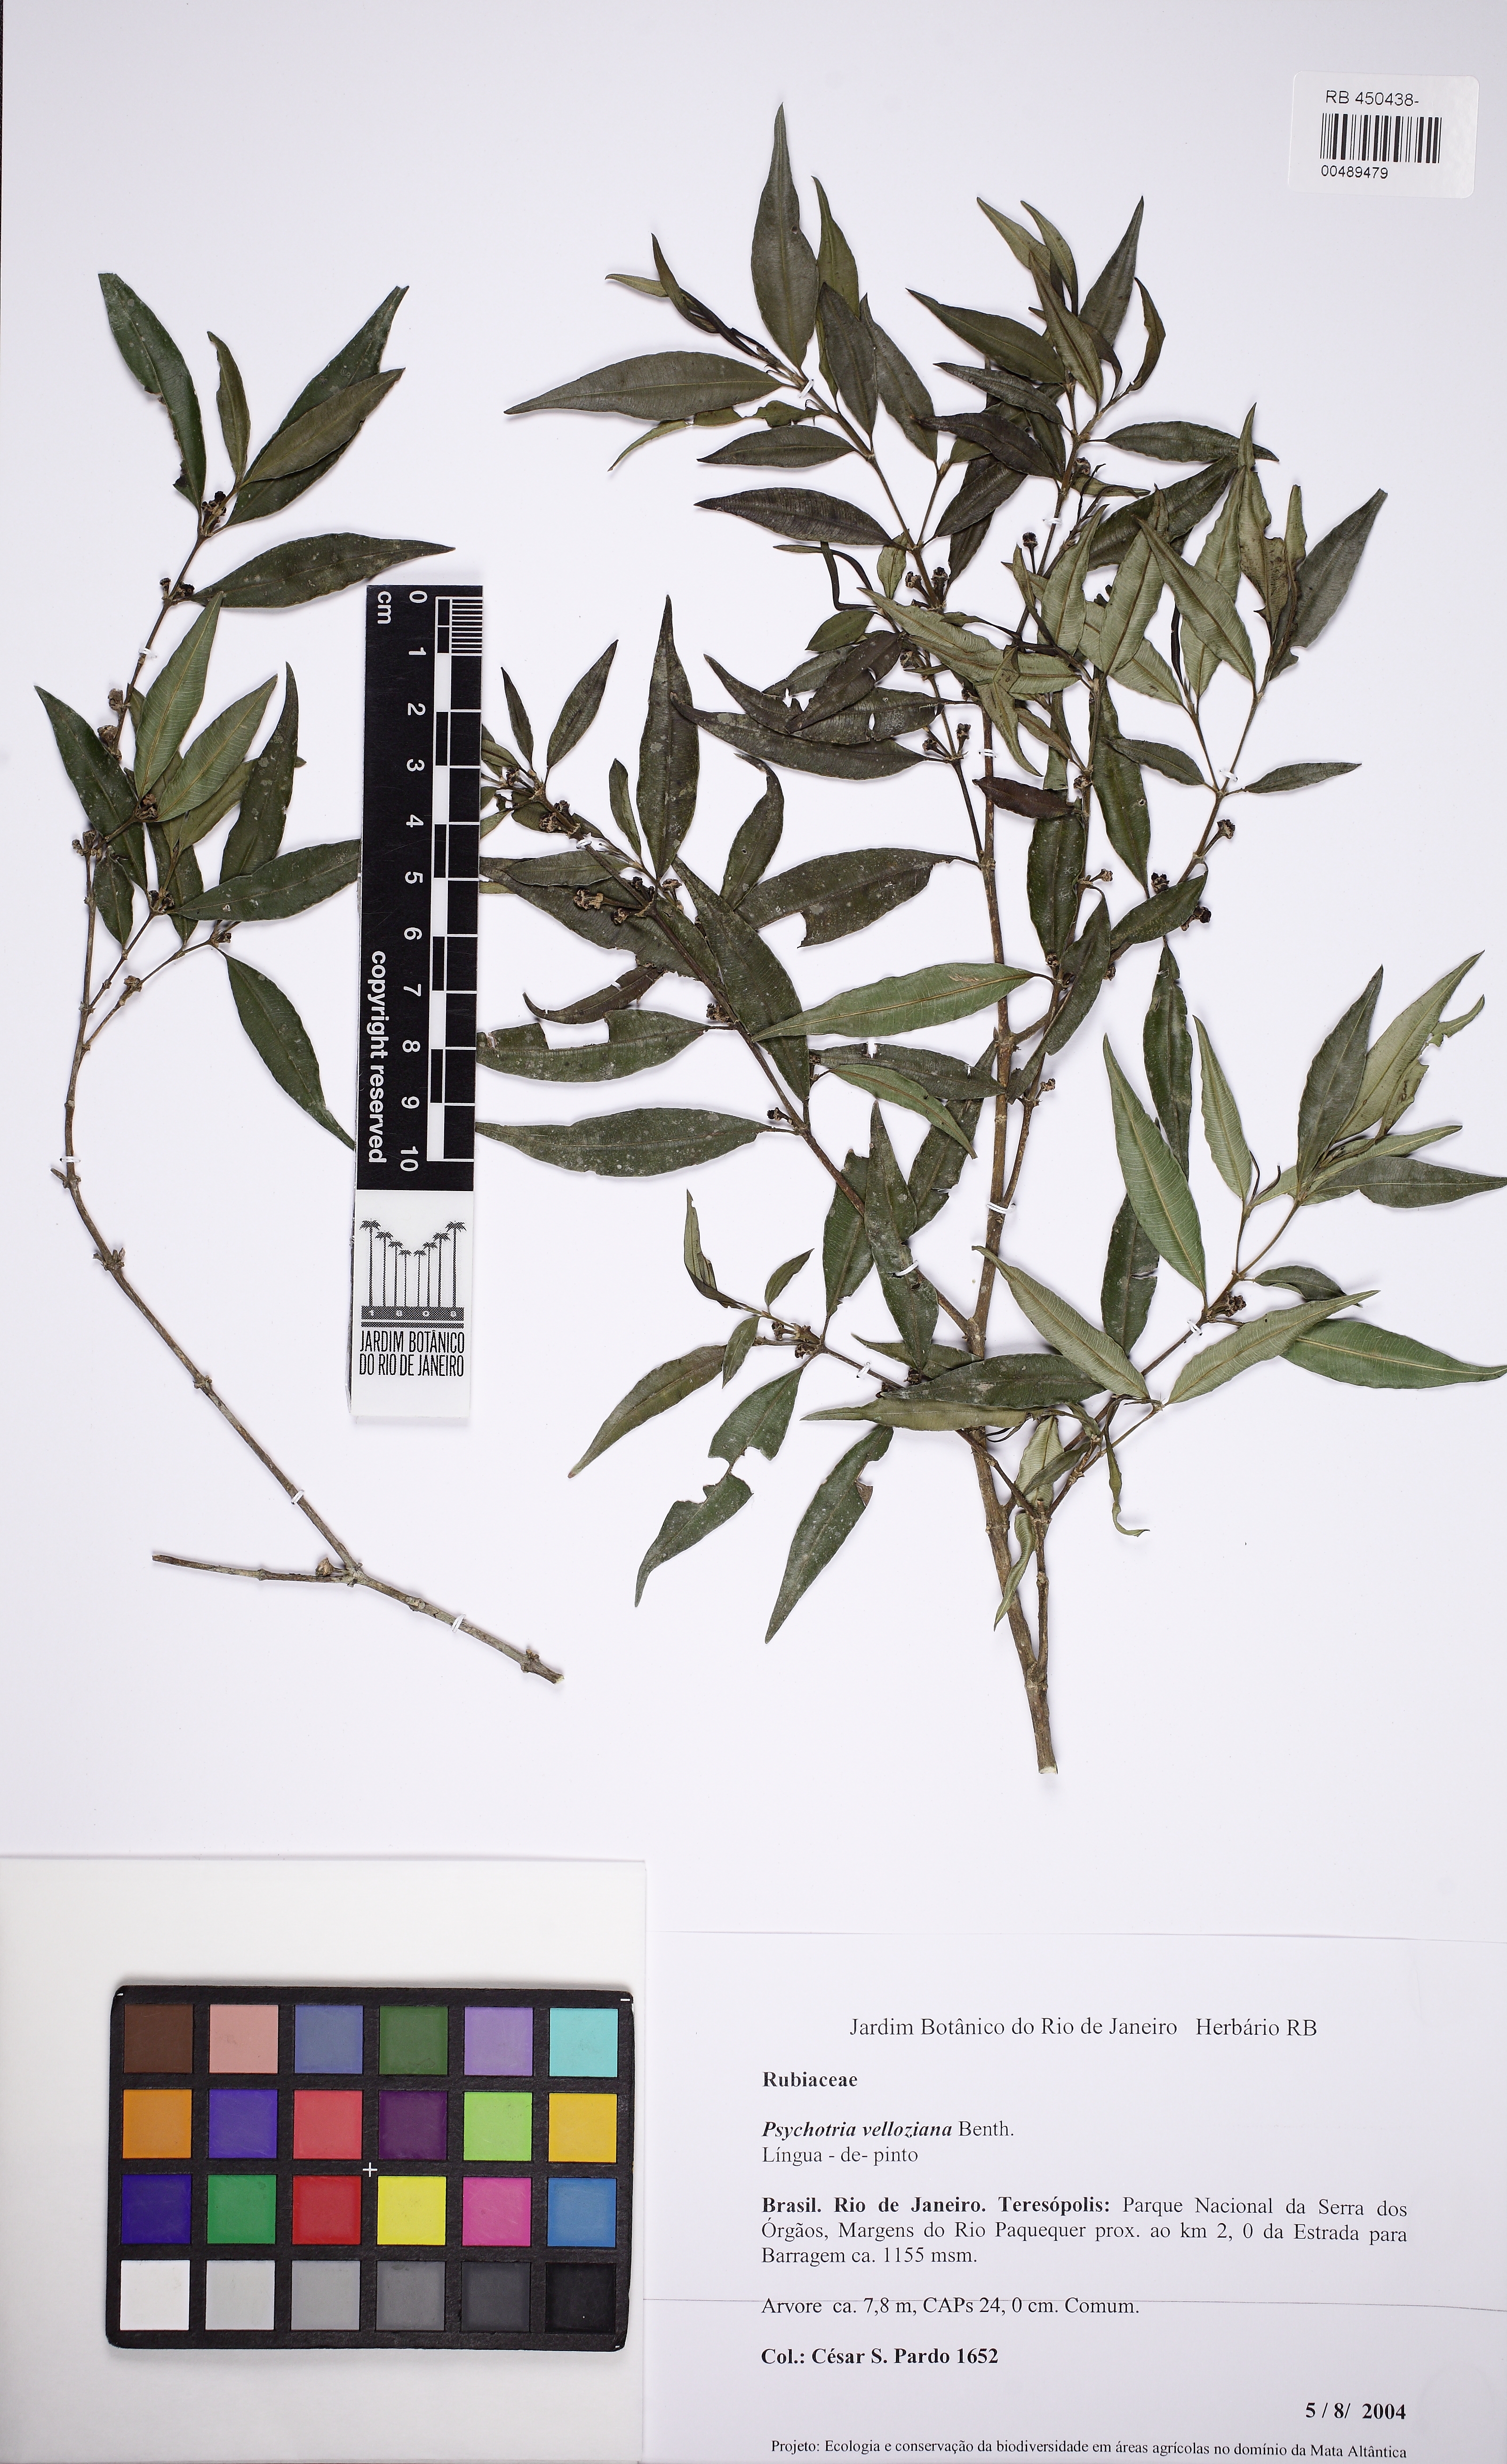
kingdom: Plantae
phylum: Tracheophyta
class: Magnoliopsida
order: Gentianales
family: Rubiaceae
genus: Palicourea
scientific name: Palicourea sessilis
